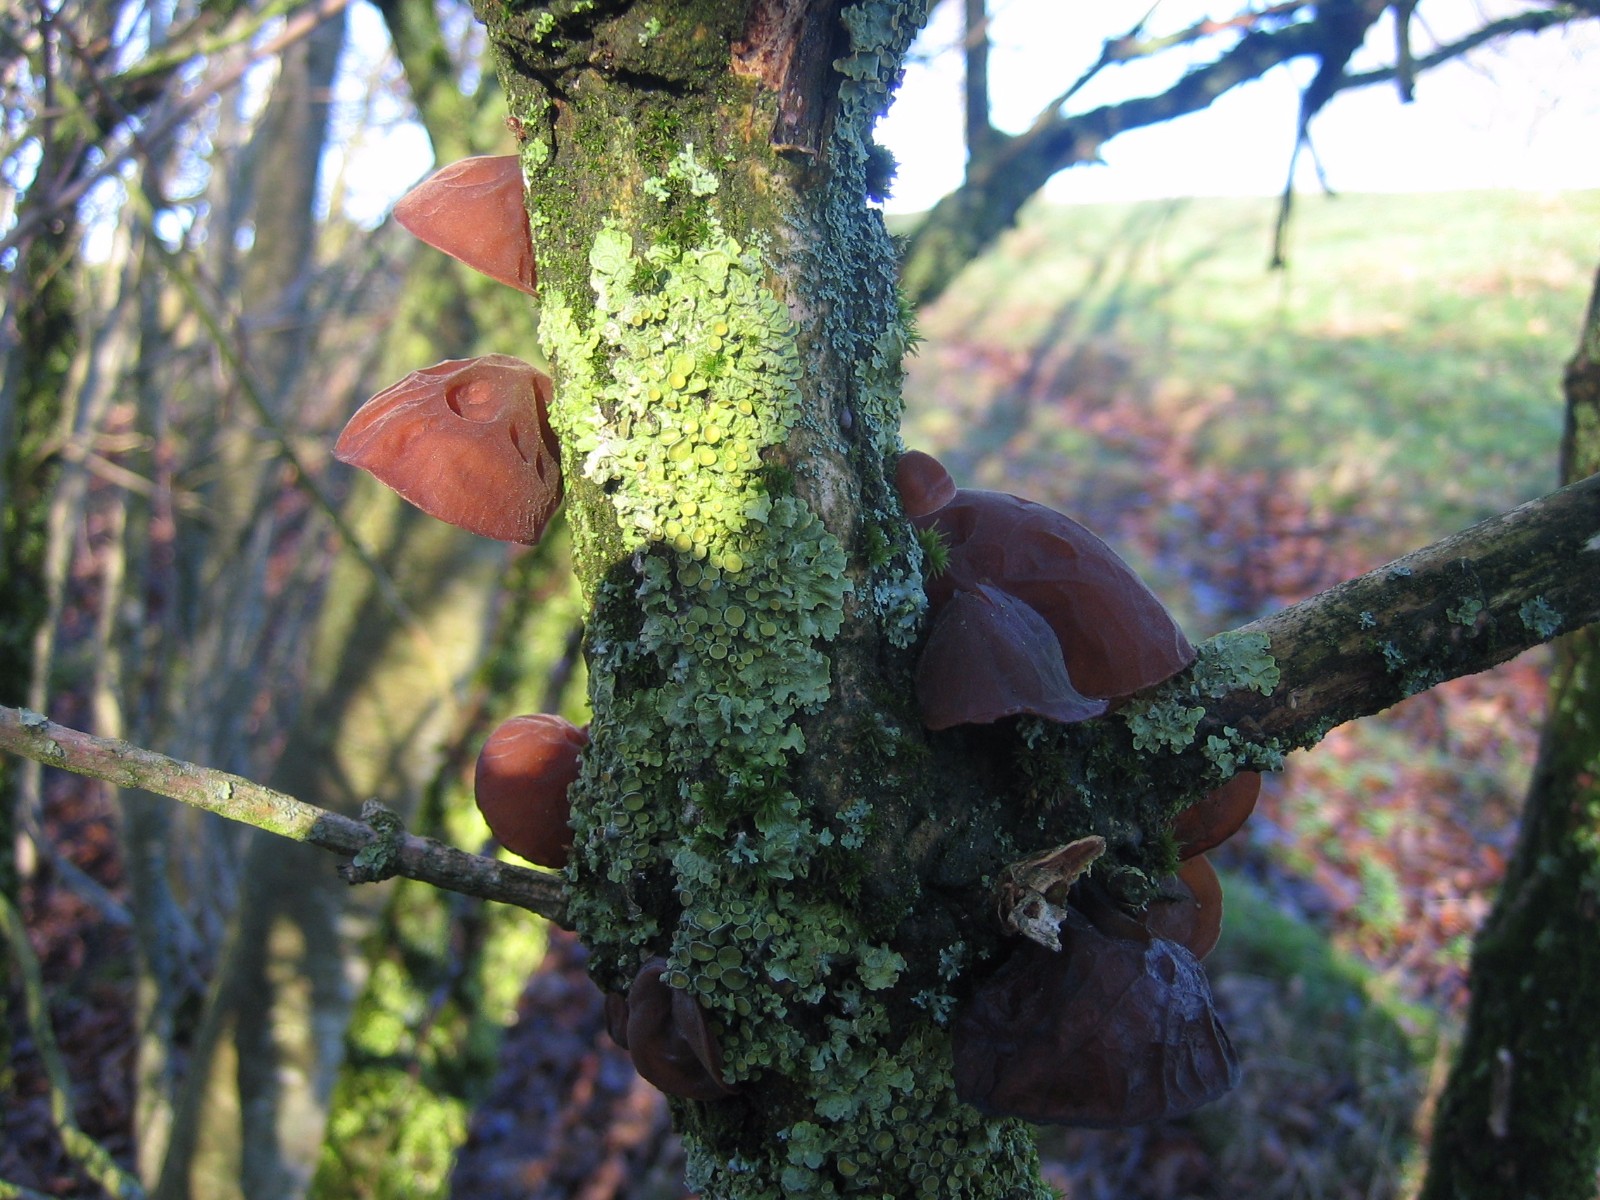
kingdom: Fungi
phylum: Basidiomycota
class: Agaricomycetes
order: Auriculariales
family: Auriculariaceae
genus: Auricularia
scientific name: Auricularia auricula-judae
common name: almindelig judasøre
